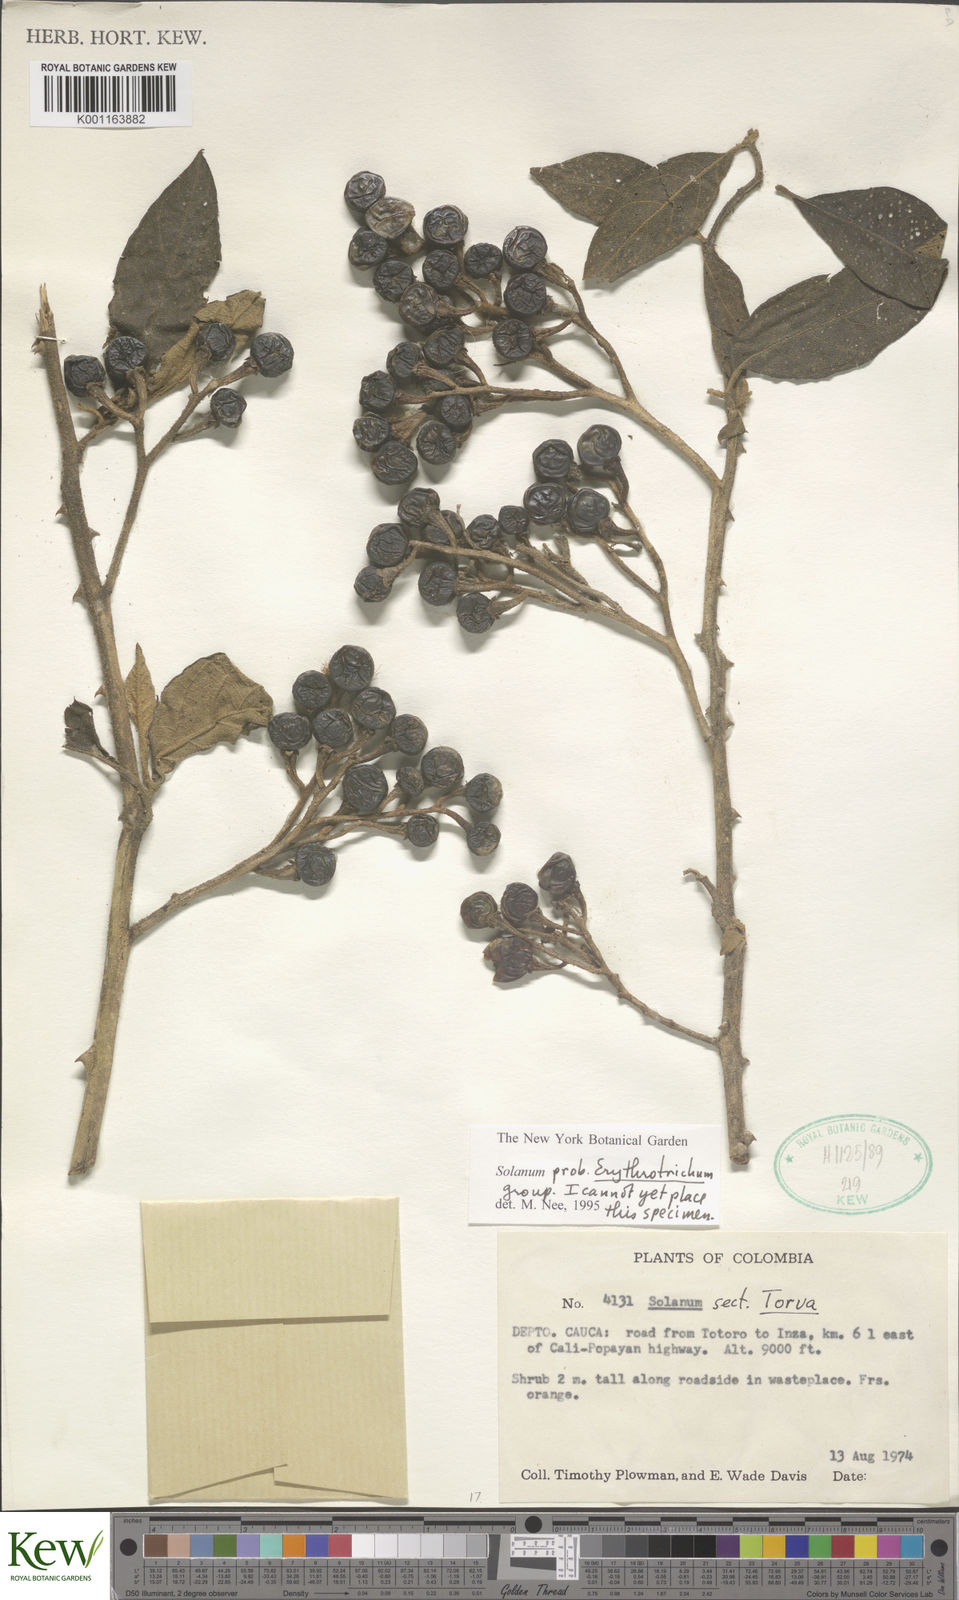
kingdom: Plantae
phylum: Tracheophyta
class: Magnoliopsida
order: Solanales
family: Solanaceae
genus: Solanum
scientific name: Solanum erythrotrichum
